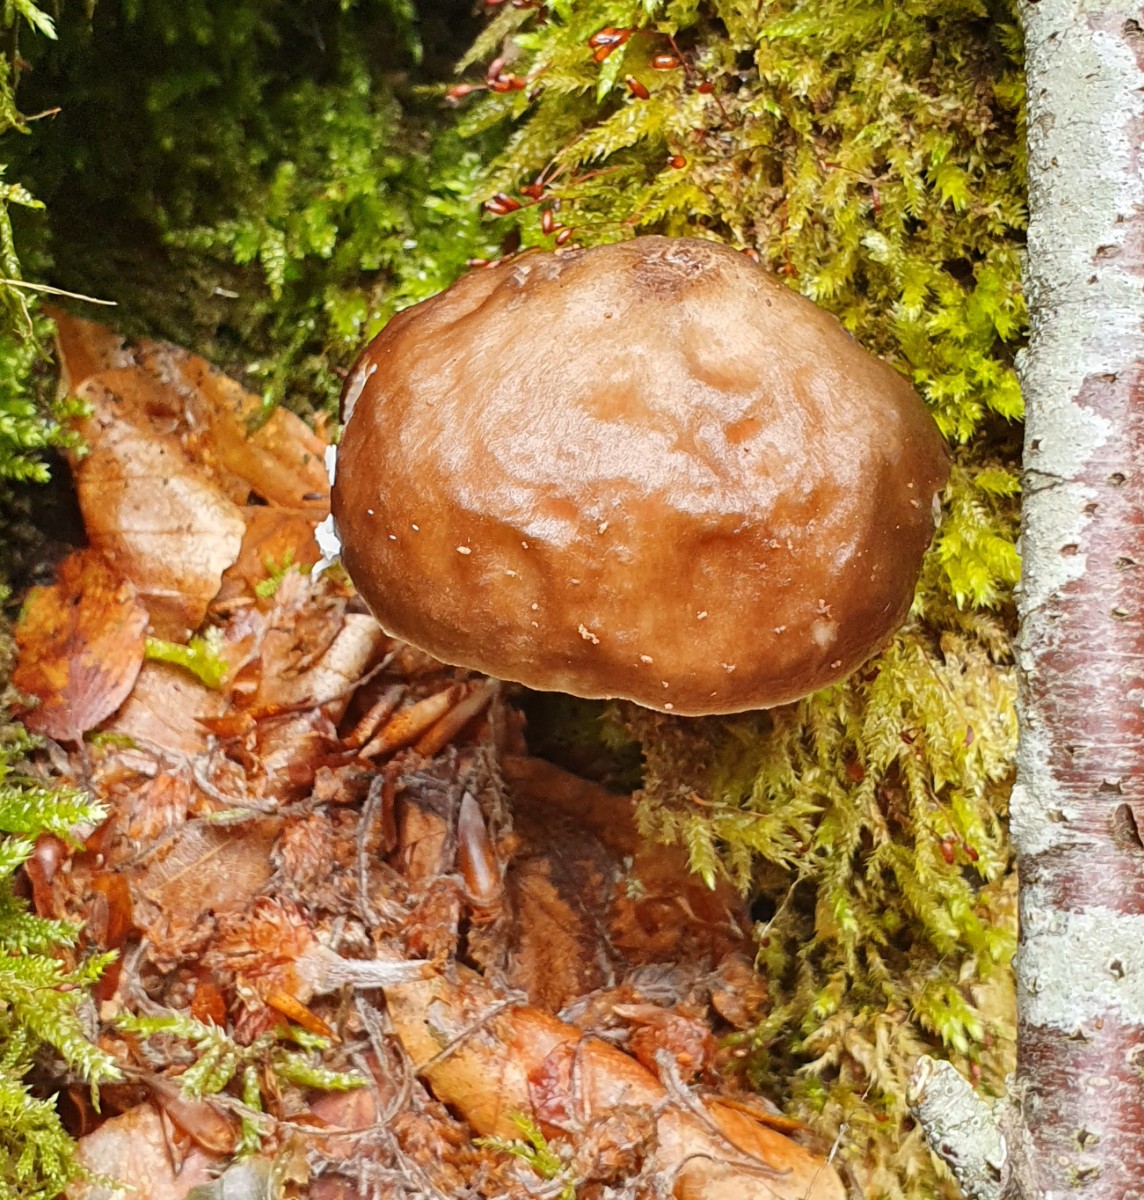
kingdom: Fungi
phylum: Basidiomycota
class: Agaricomycetes
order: Agaricales
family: Pluteaceae
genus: Pluteus
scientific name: Pluteus cervinus
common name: sodfarvet skærmhat
